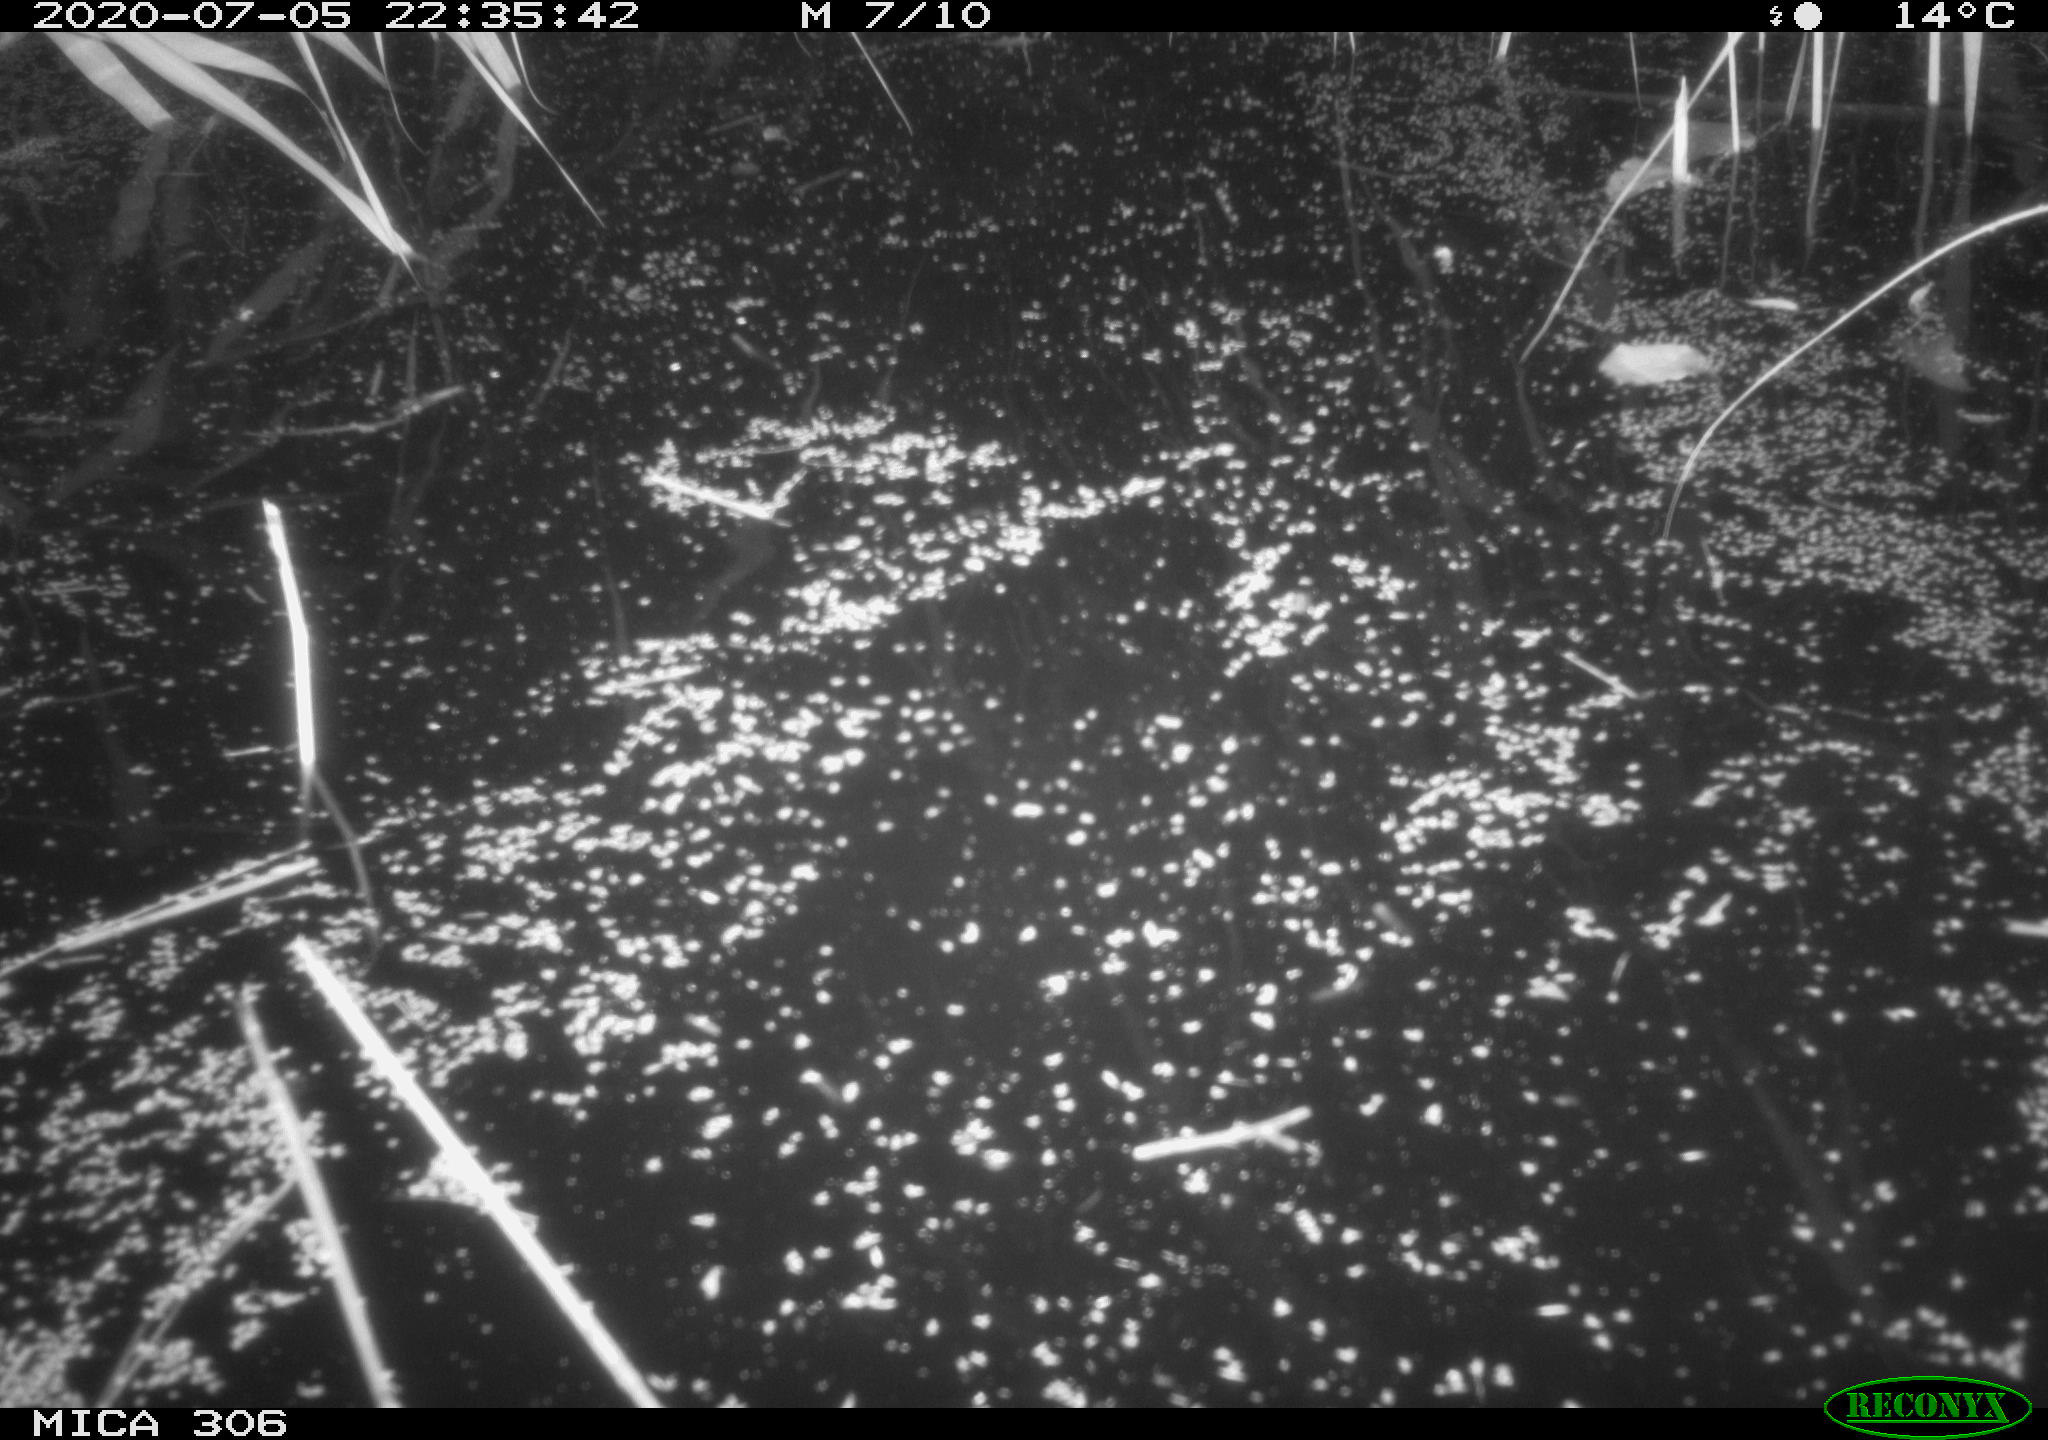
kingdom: Animalia
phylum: Chordata
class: Mammalia
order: Rodentia
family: Cricetidae
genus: Ondatra
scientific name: Ondatra zibethicus
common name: Muskrat
